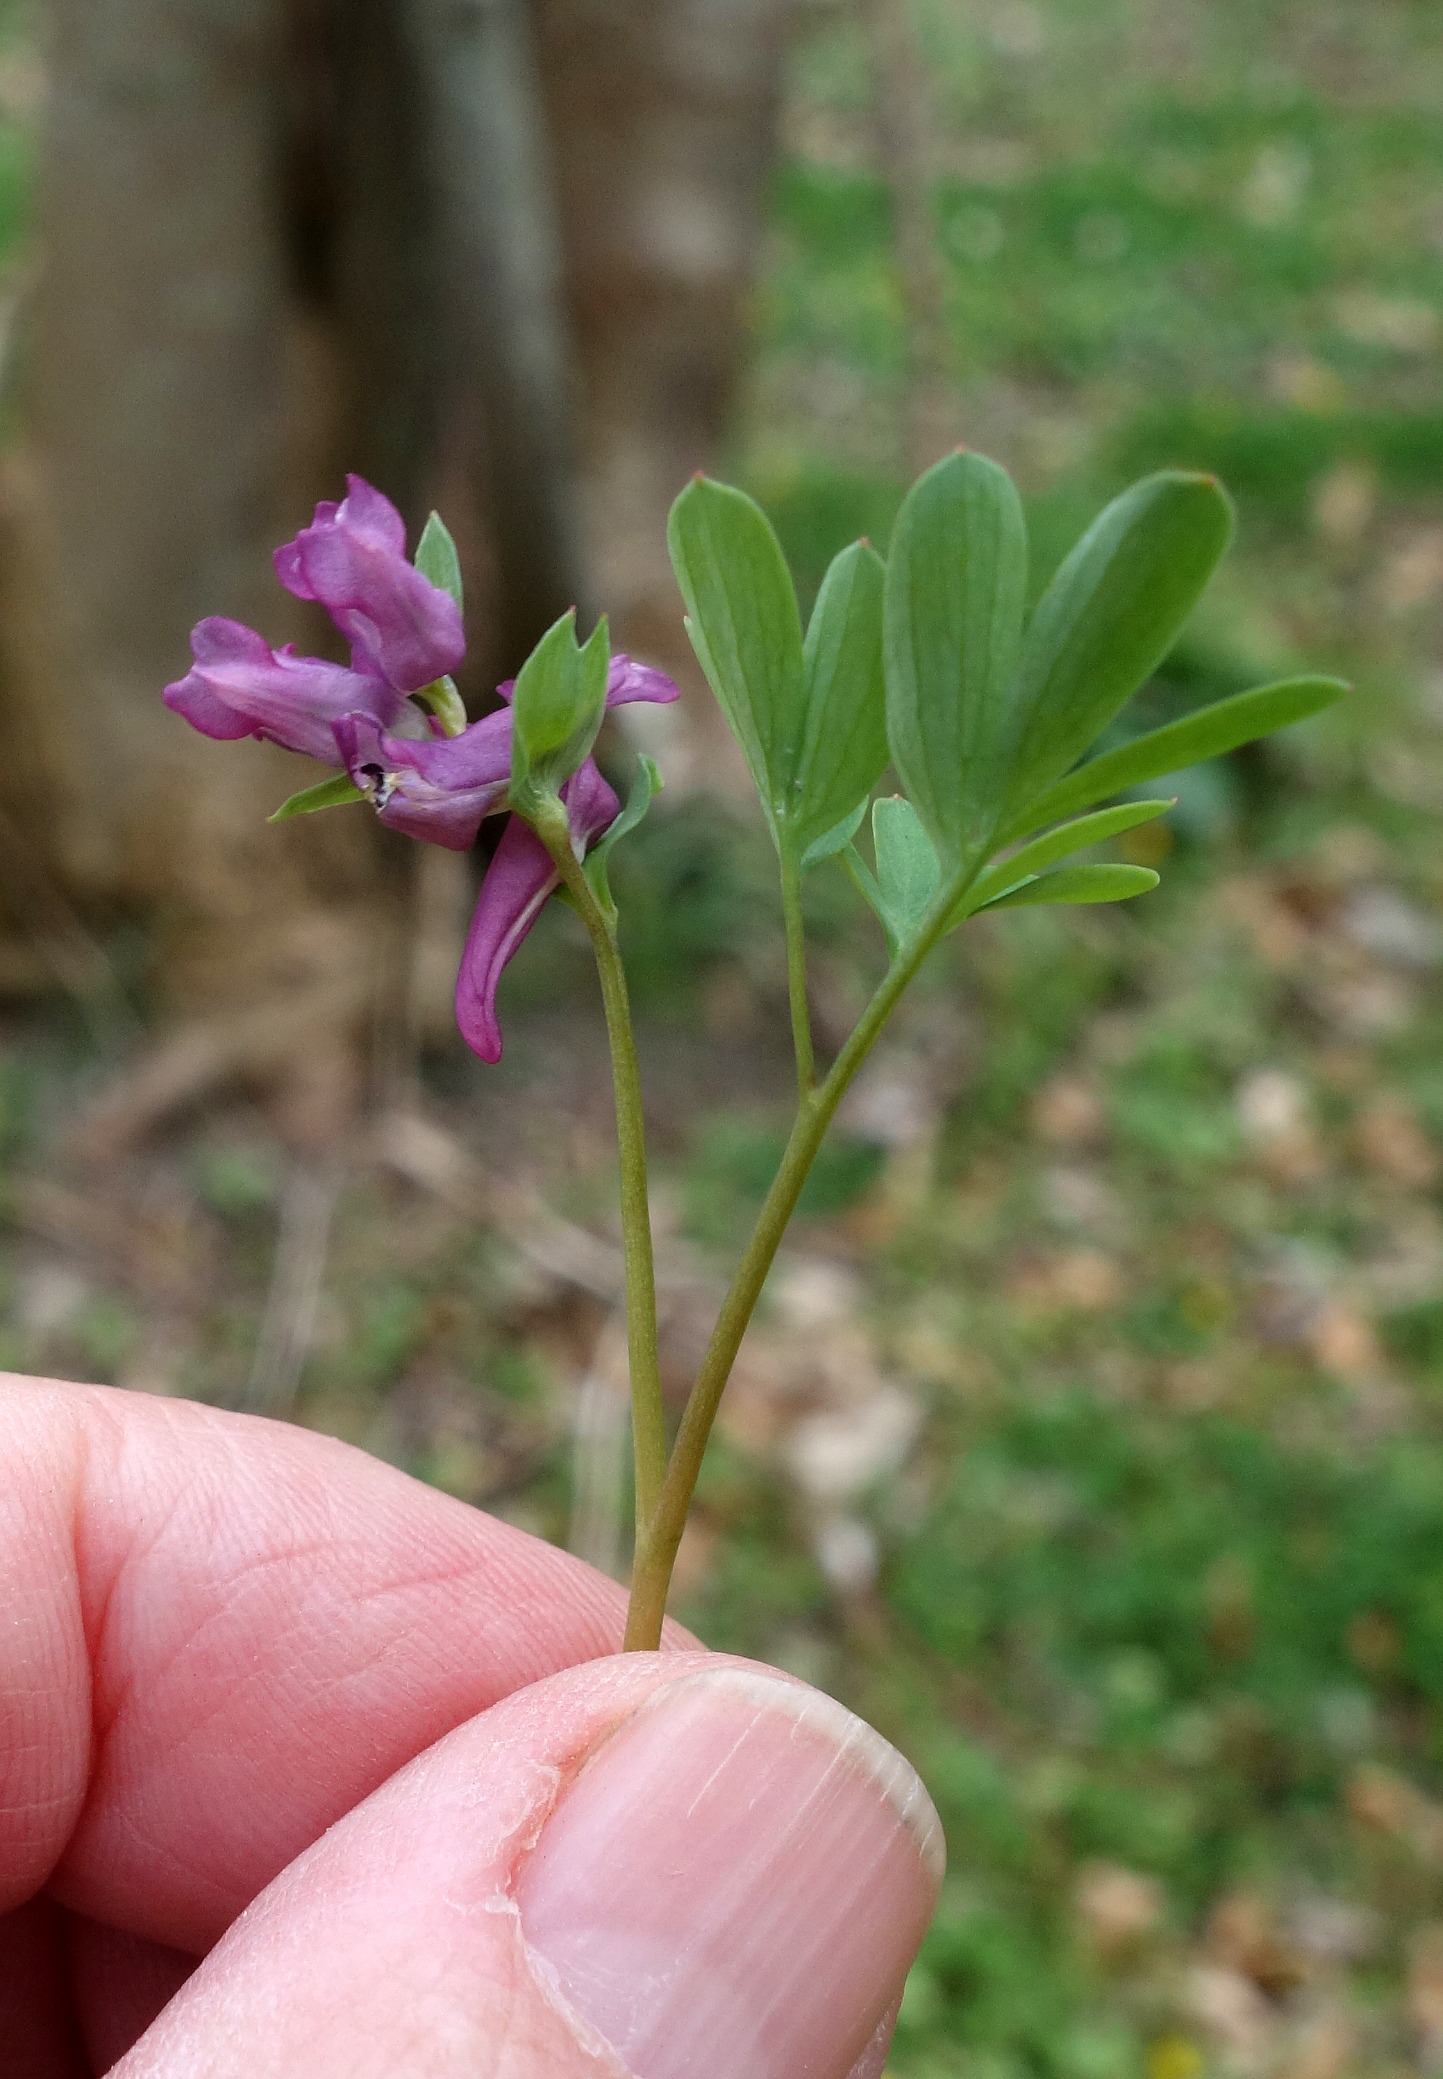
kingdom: Plantae
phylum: Tracheophyta
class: Magnoliopsida
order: Ranunculales
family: Papaveraceae
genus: Corydalis
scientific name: Corydalis intermedia
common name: Liden lærkespore
